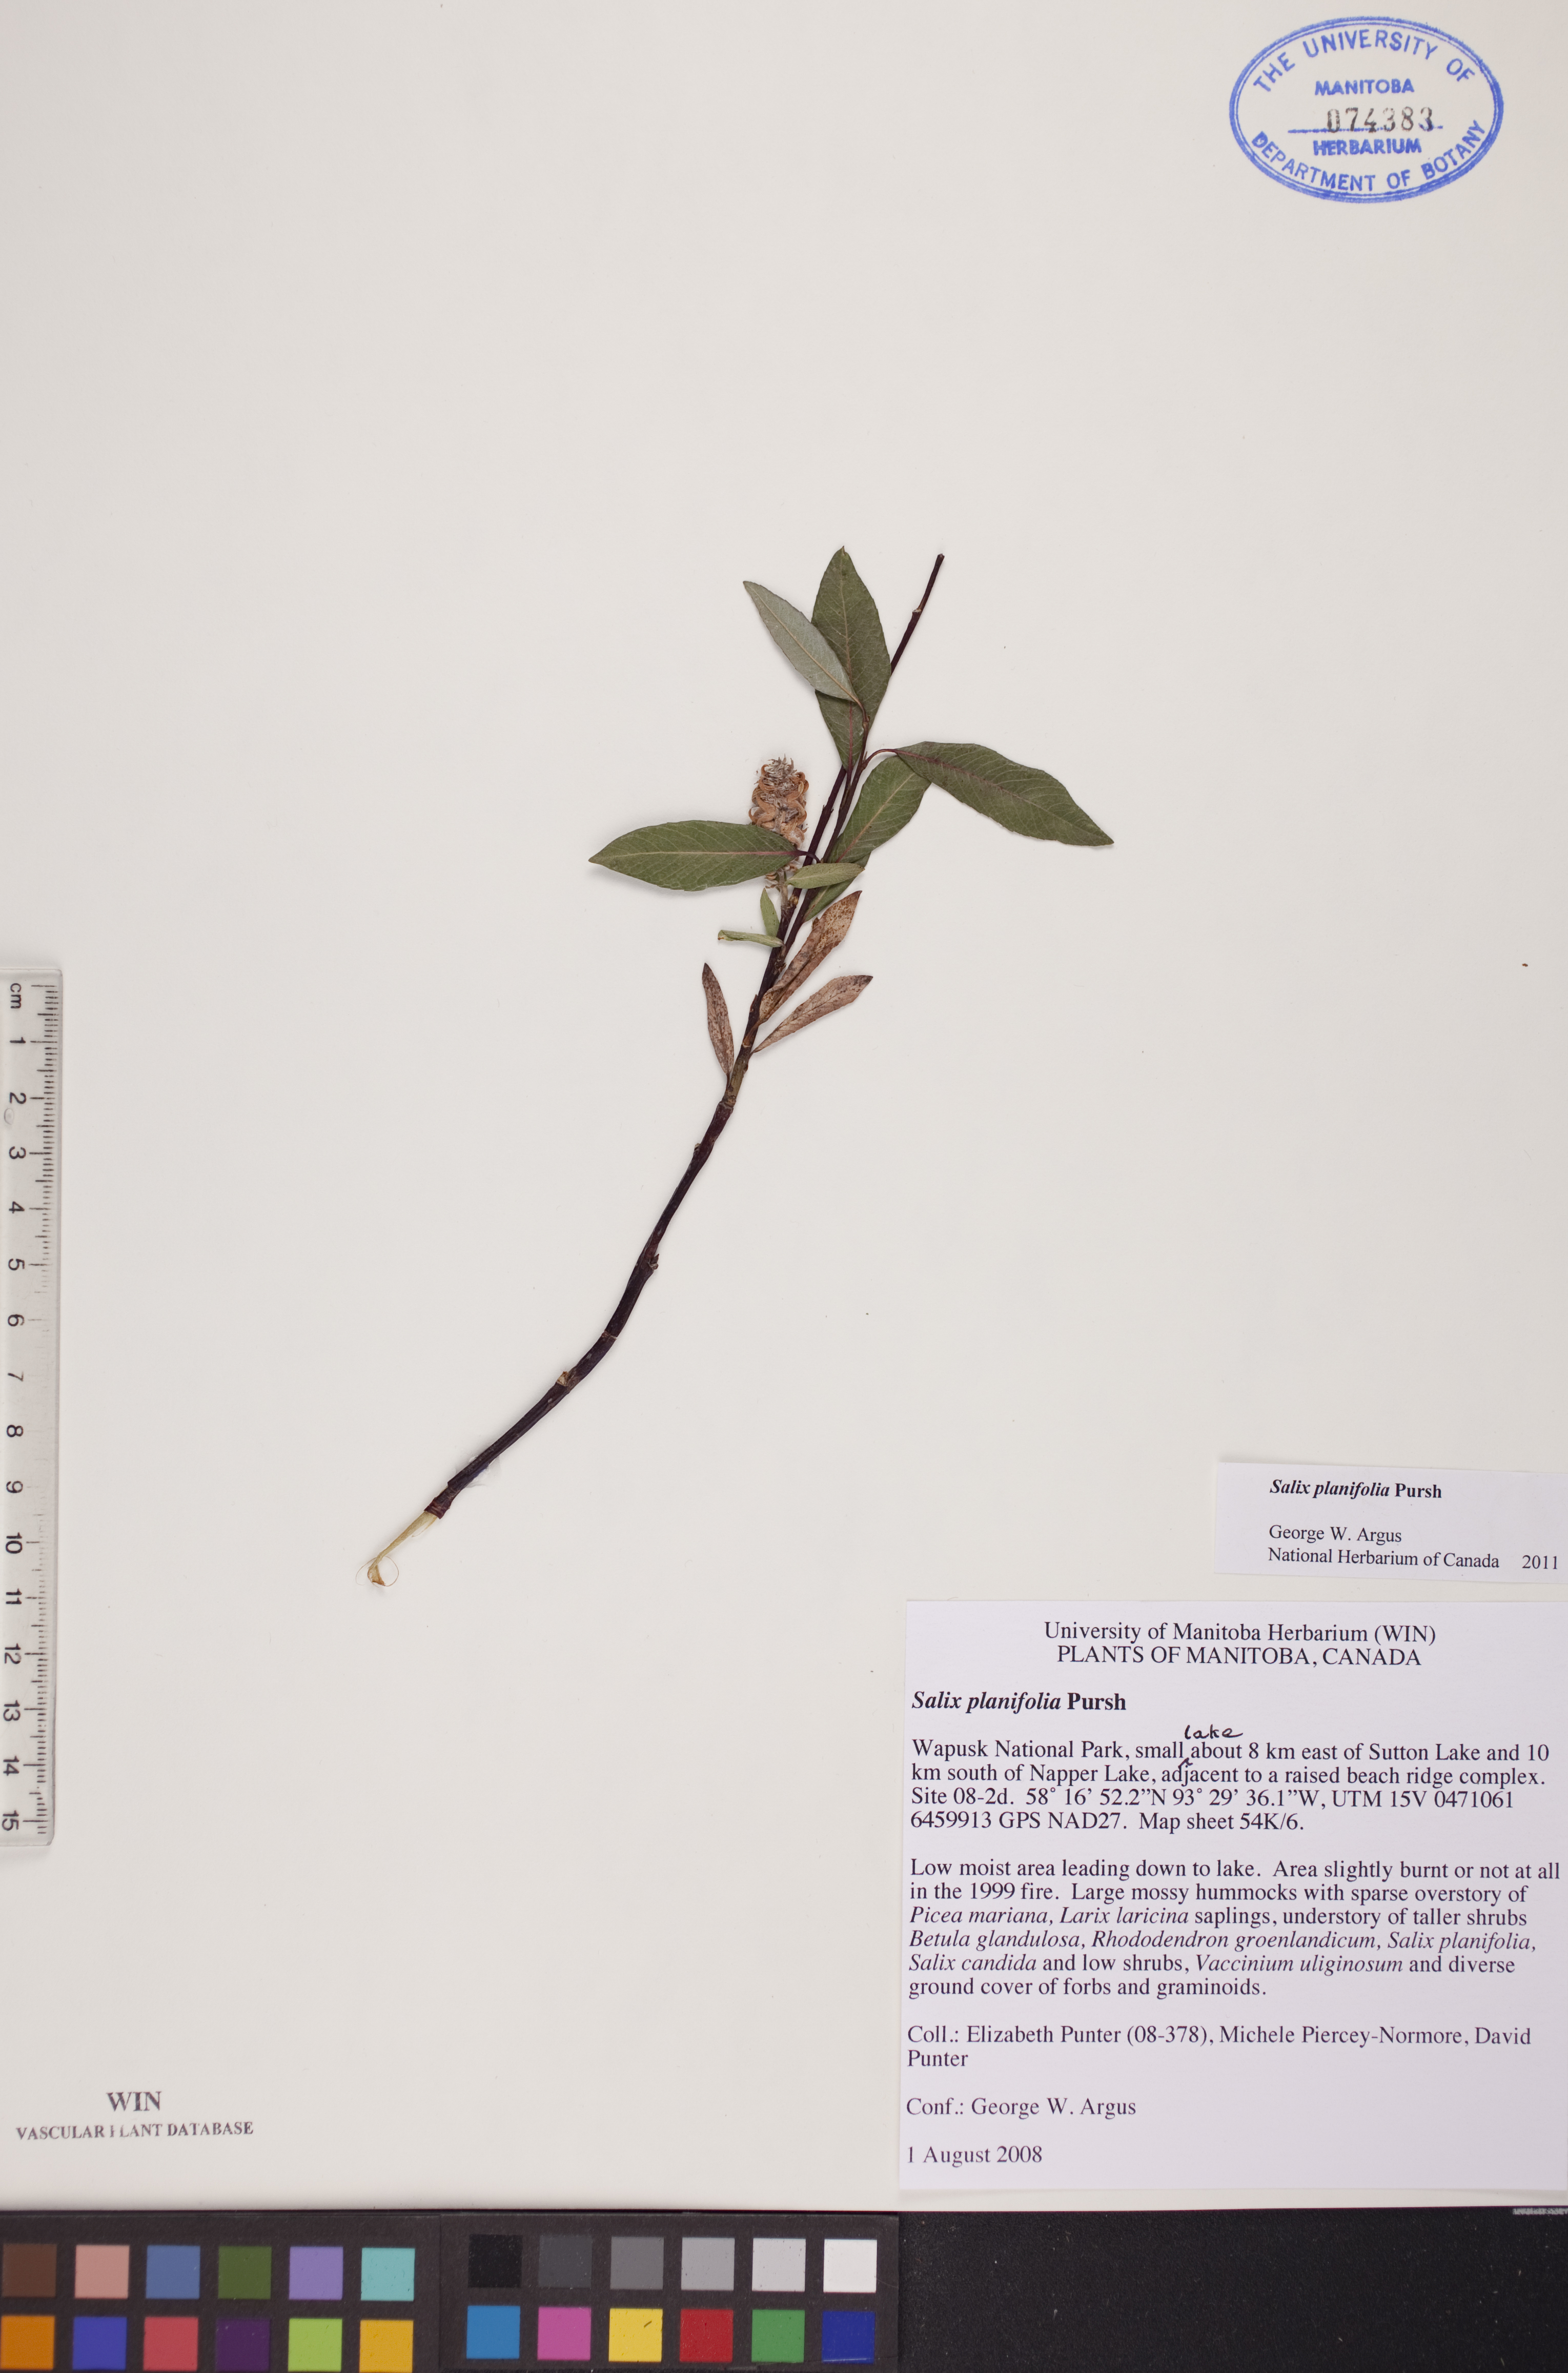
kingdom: Plantae
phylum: Tracheophyta
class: Magnoliopsida
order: Malpighiales
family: Salicaceae
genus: Salix
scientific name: Salix planifolia
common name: Mountain willow
